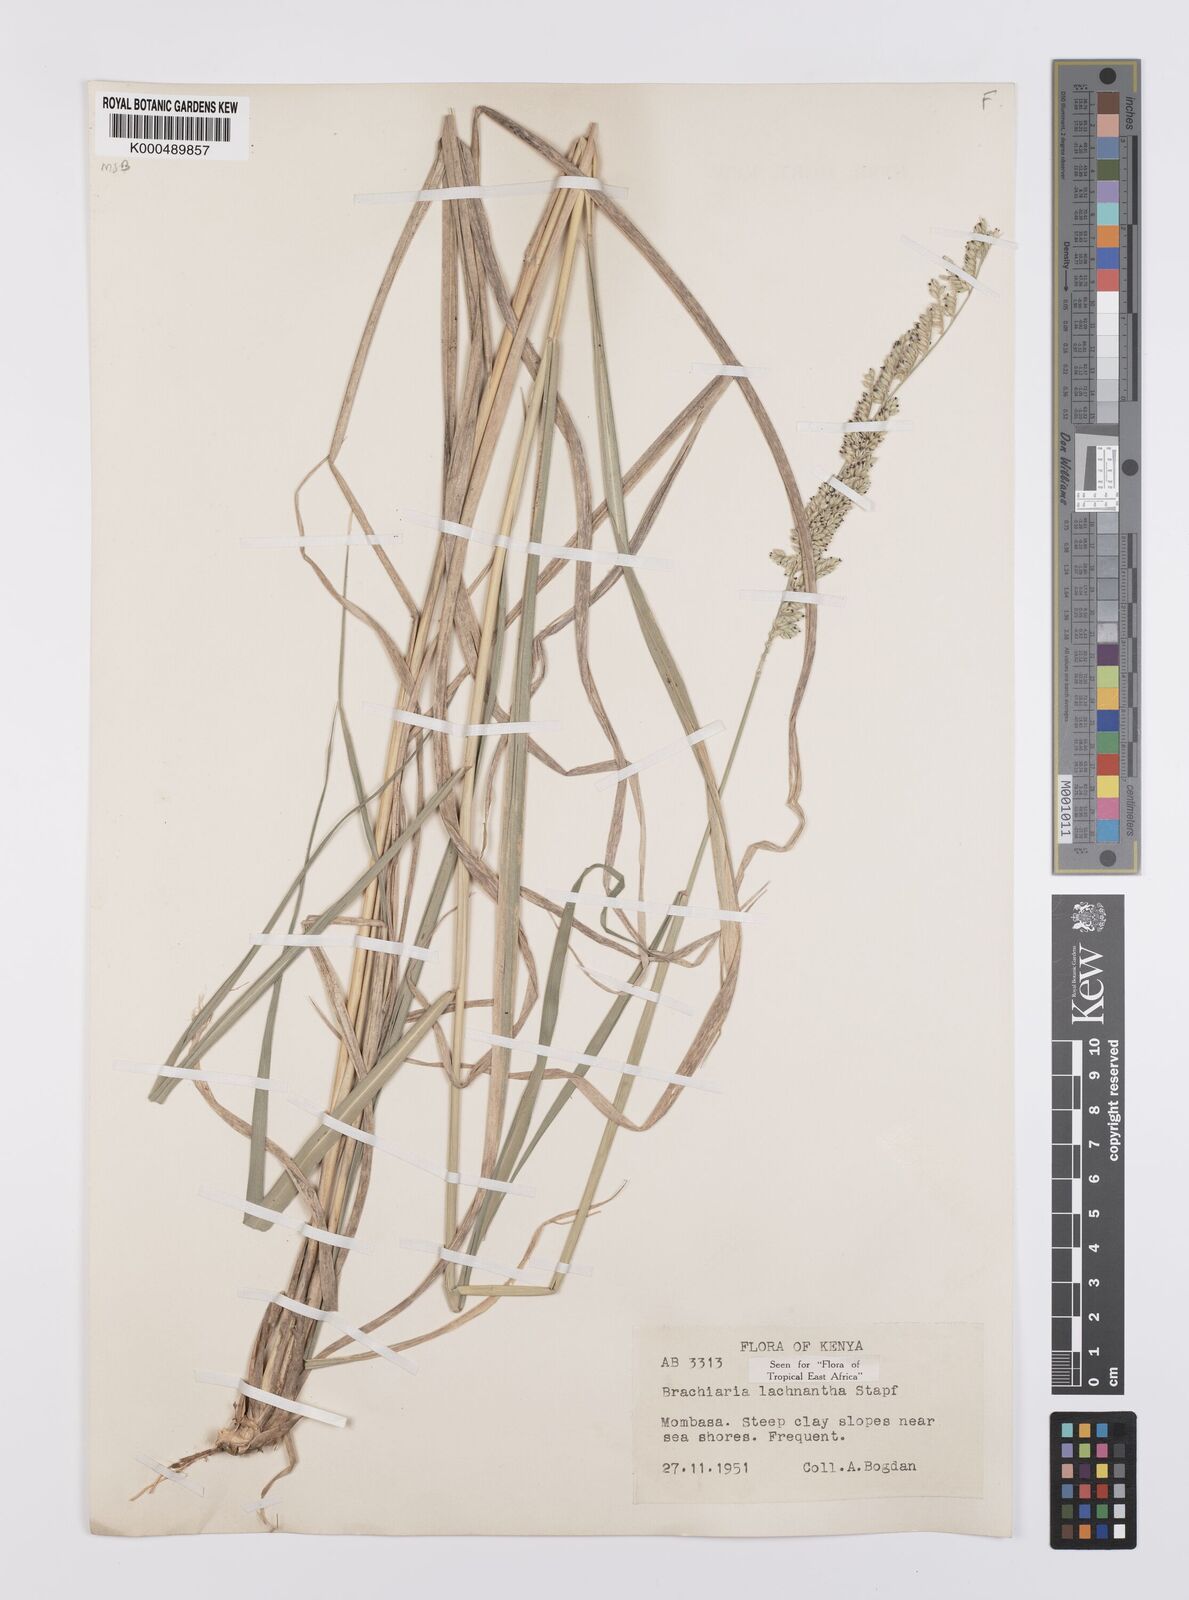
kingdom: Plantae
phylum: Tracheophyta
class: Liliopsida
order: Poales
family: Poaceae
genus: Urochloa
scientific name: Urochloa lachnantha
